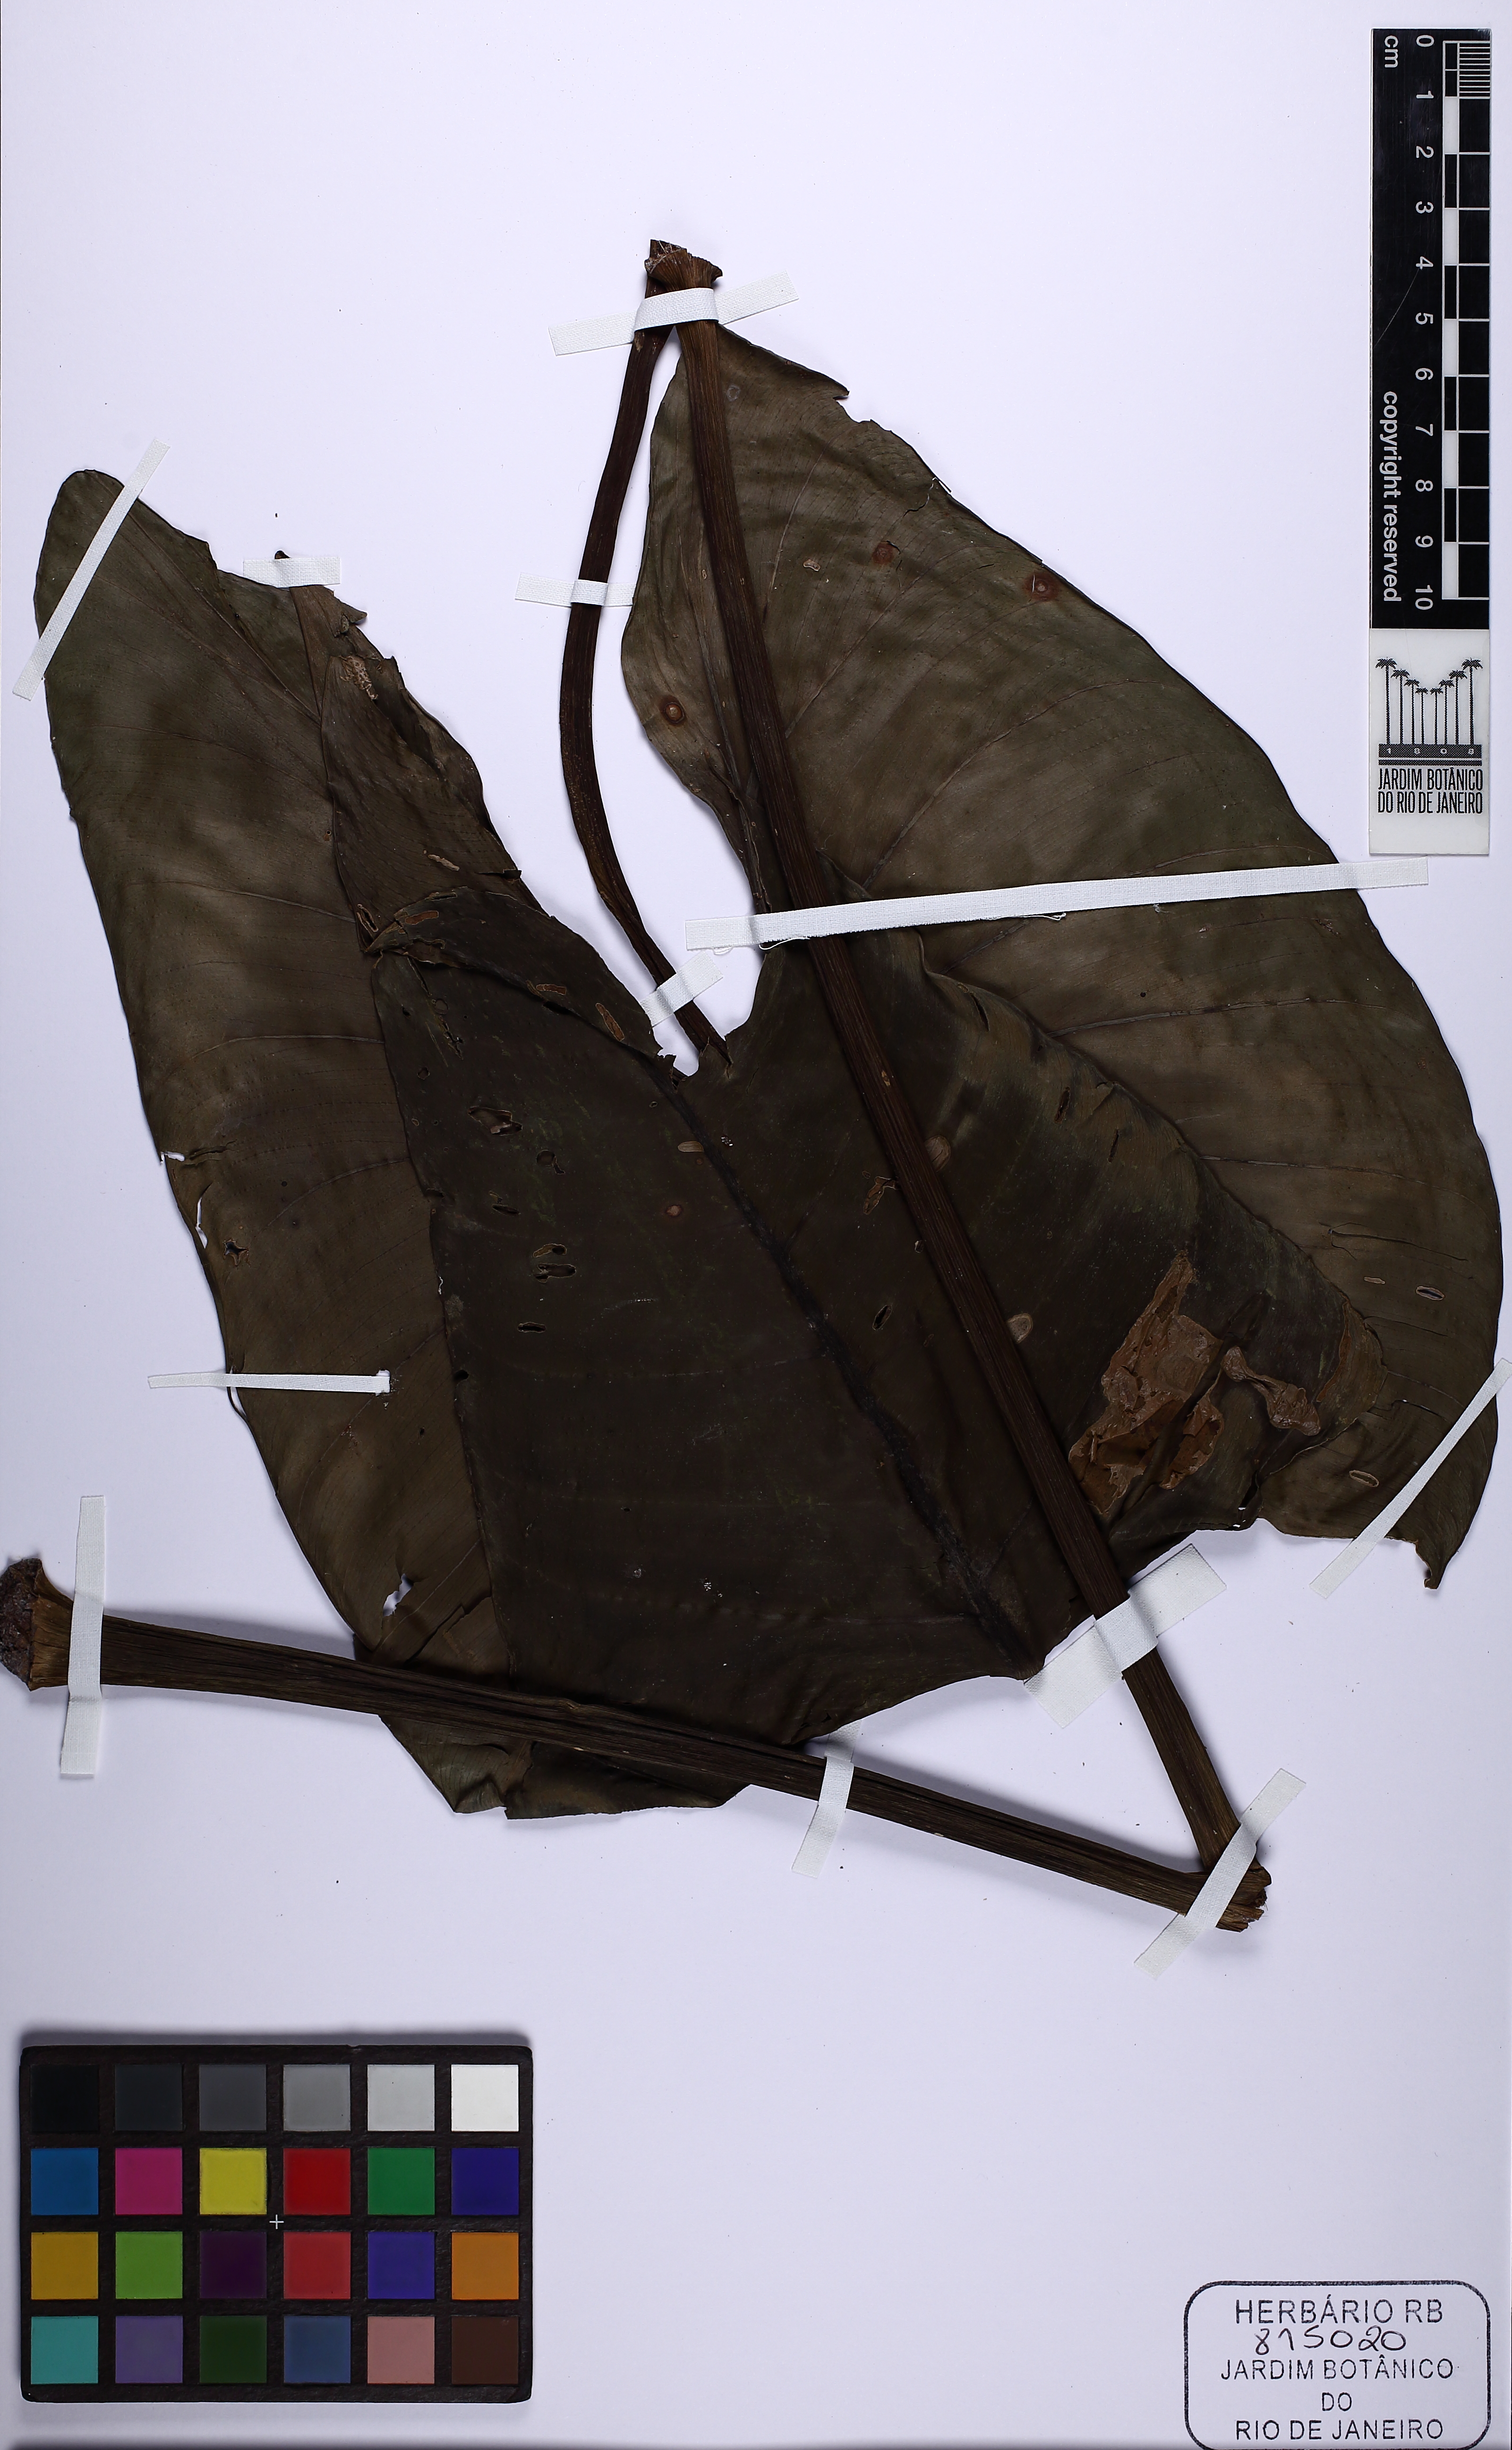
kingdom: Plantae
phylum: Tracheophyta
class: Liliopsida
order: Alismatales
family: Araceae
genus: Philodendron
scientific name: Philodendron
